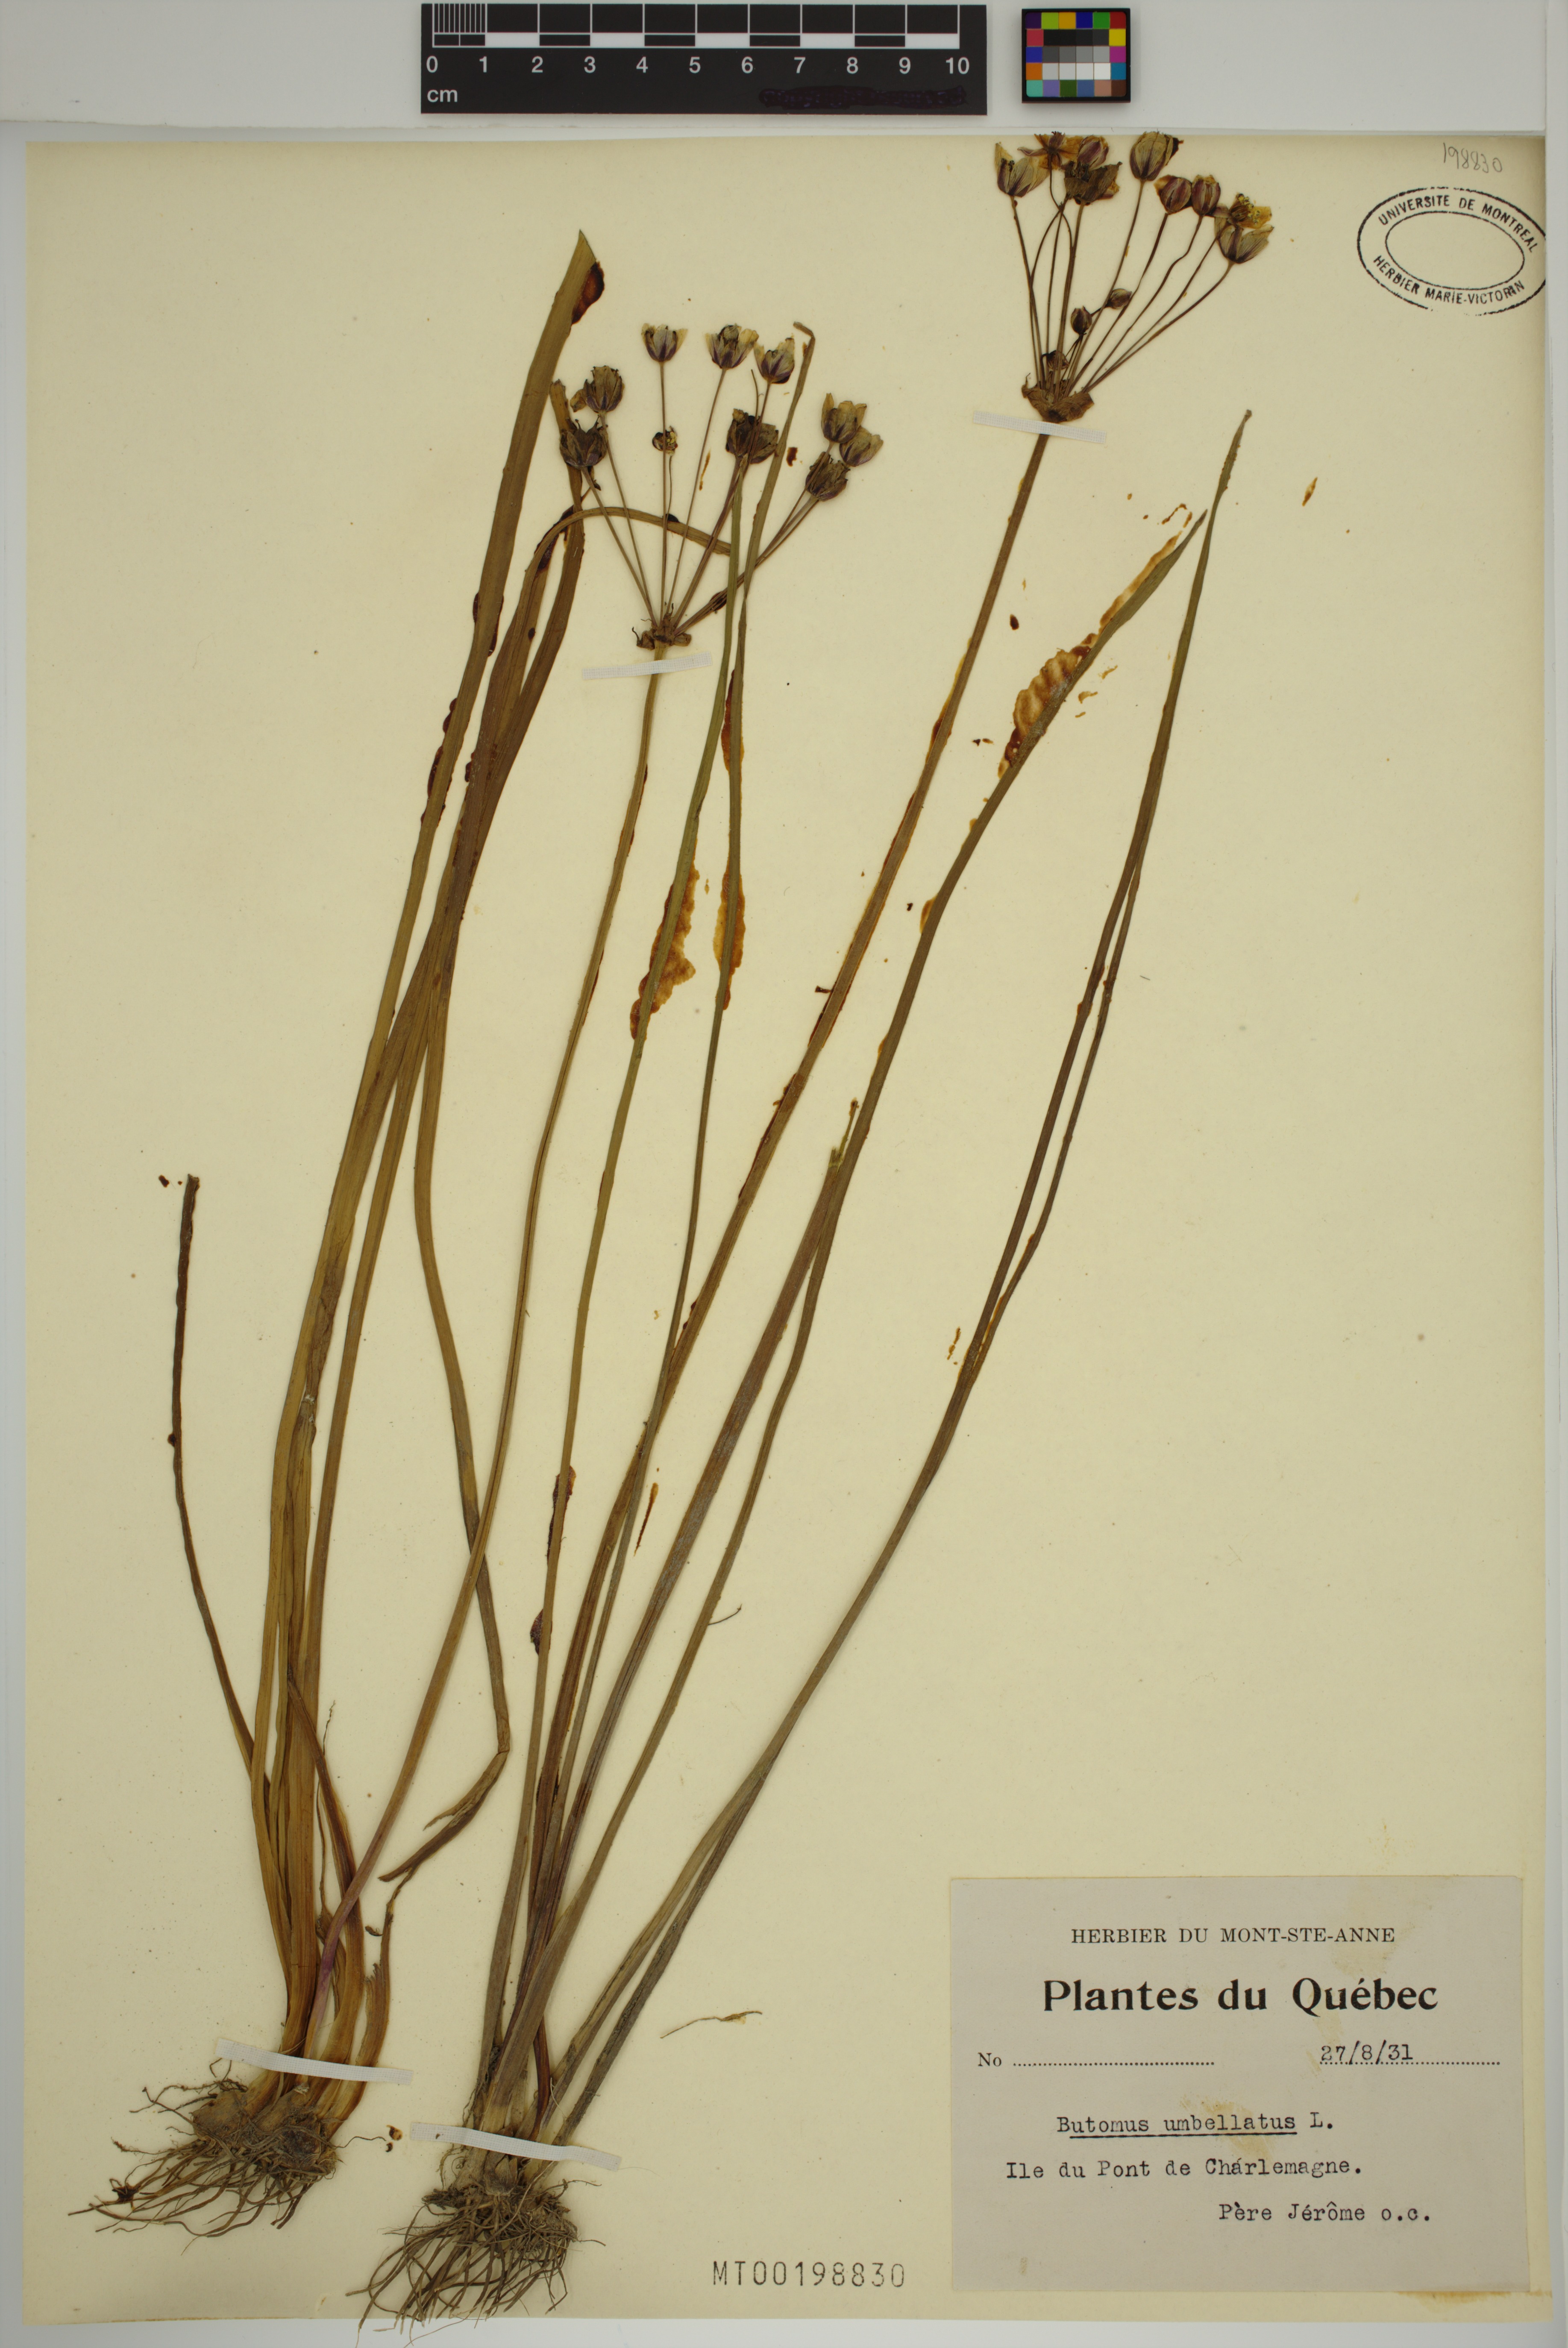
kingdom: Plantae
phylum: Tracheophyta
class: Liliopsida
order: Alismatales
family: Butomaceae
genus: Butomus
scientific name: Butomus umbellatus
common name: Flowering-rush
